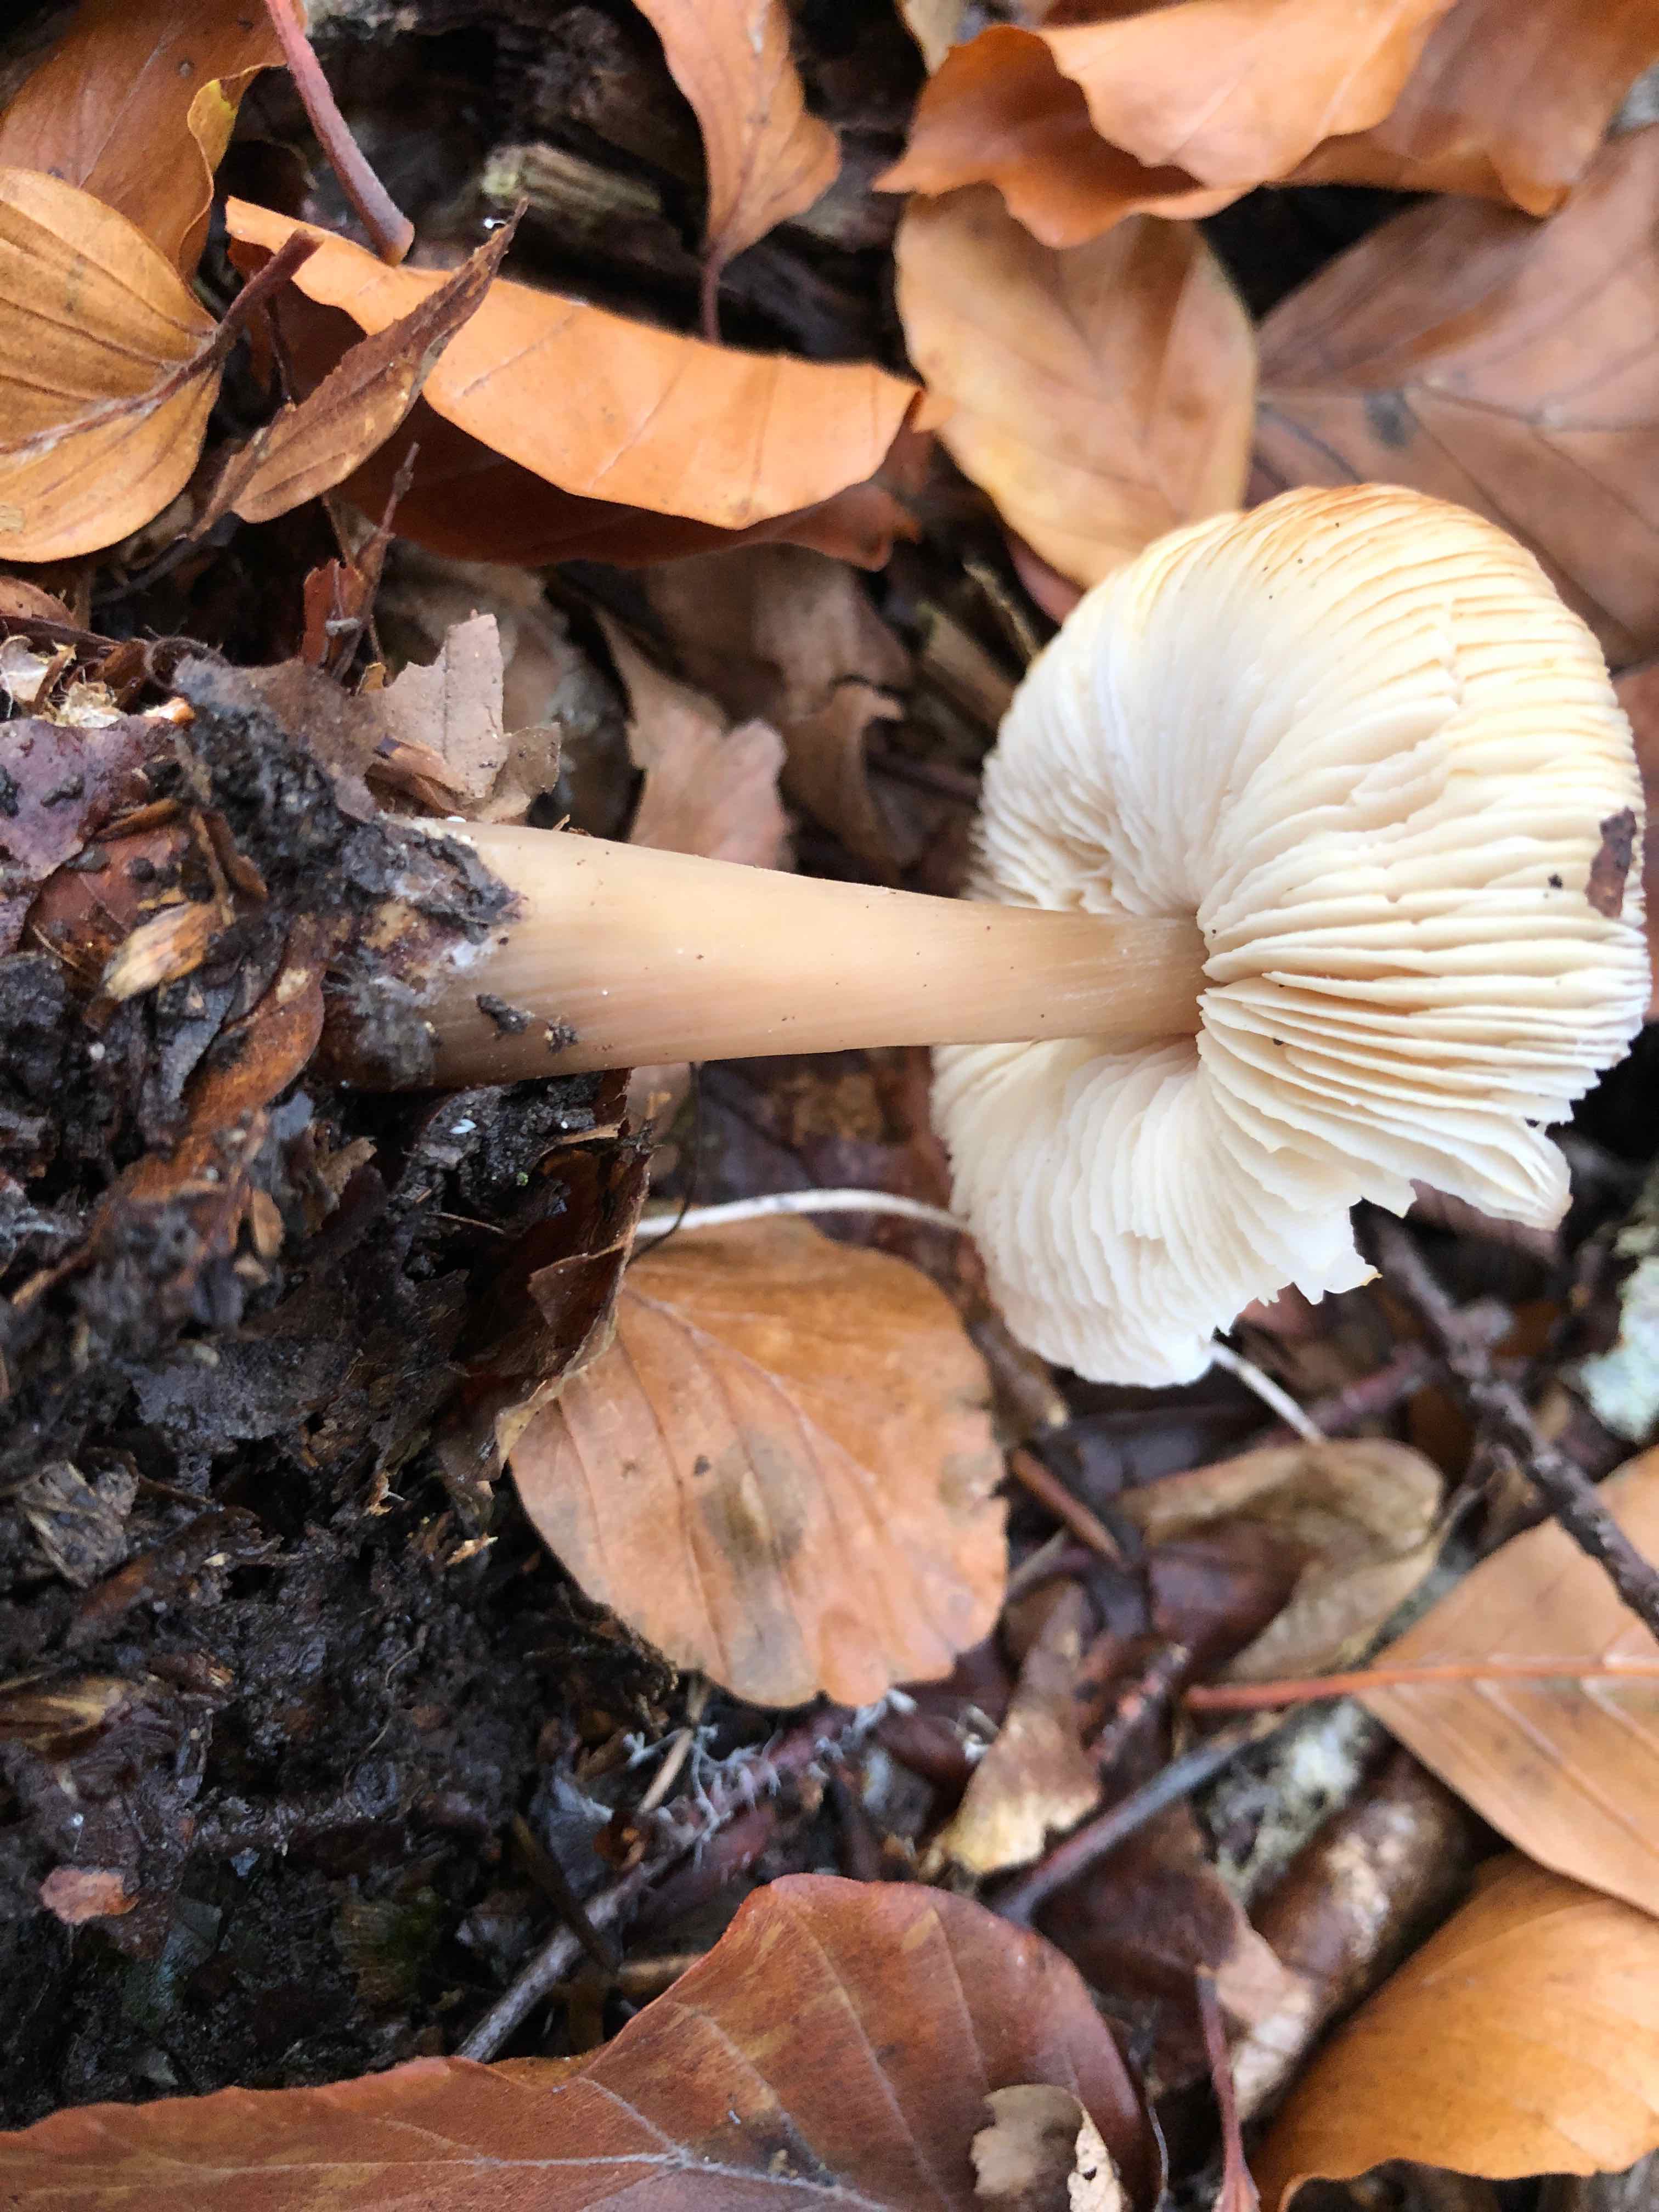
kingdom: Fungi
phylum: Basidiomycota
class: Agaricomycetes
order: Agaricales
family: Omphalotaceae
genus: Rhodocollybia
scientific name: Rhodocollybia asema
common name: horngrå fladhat
